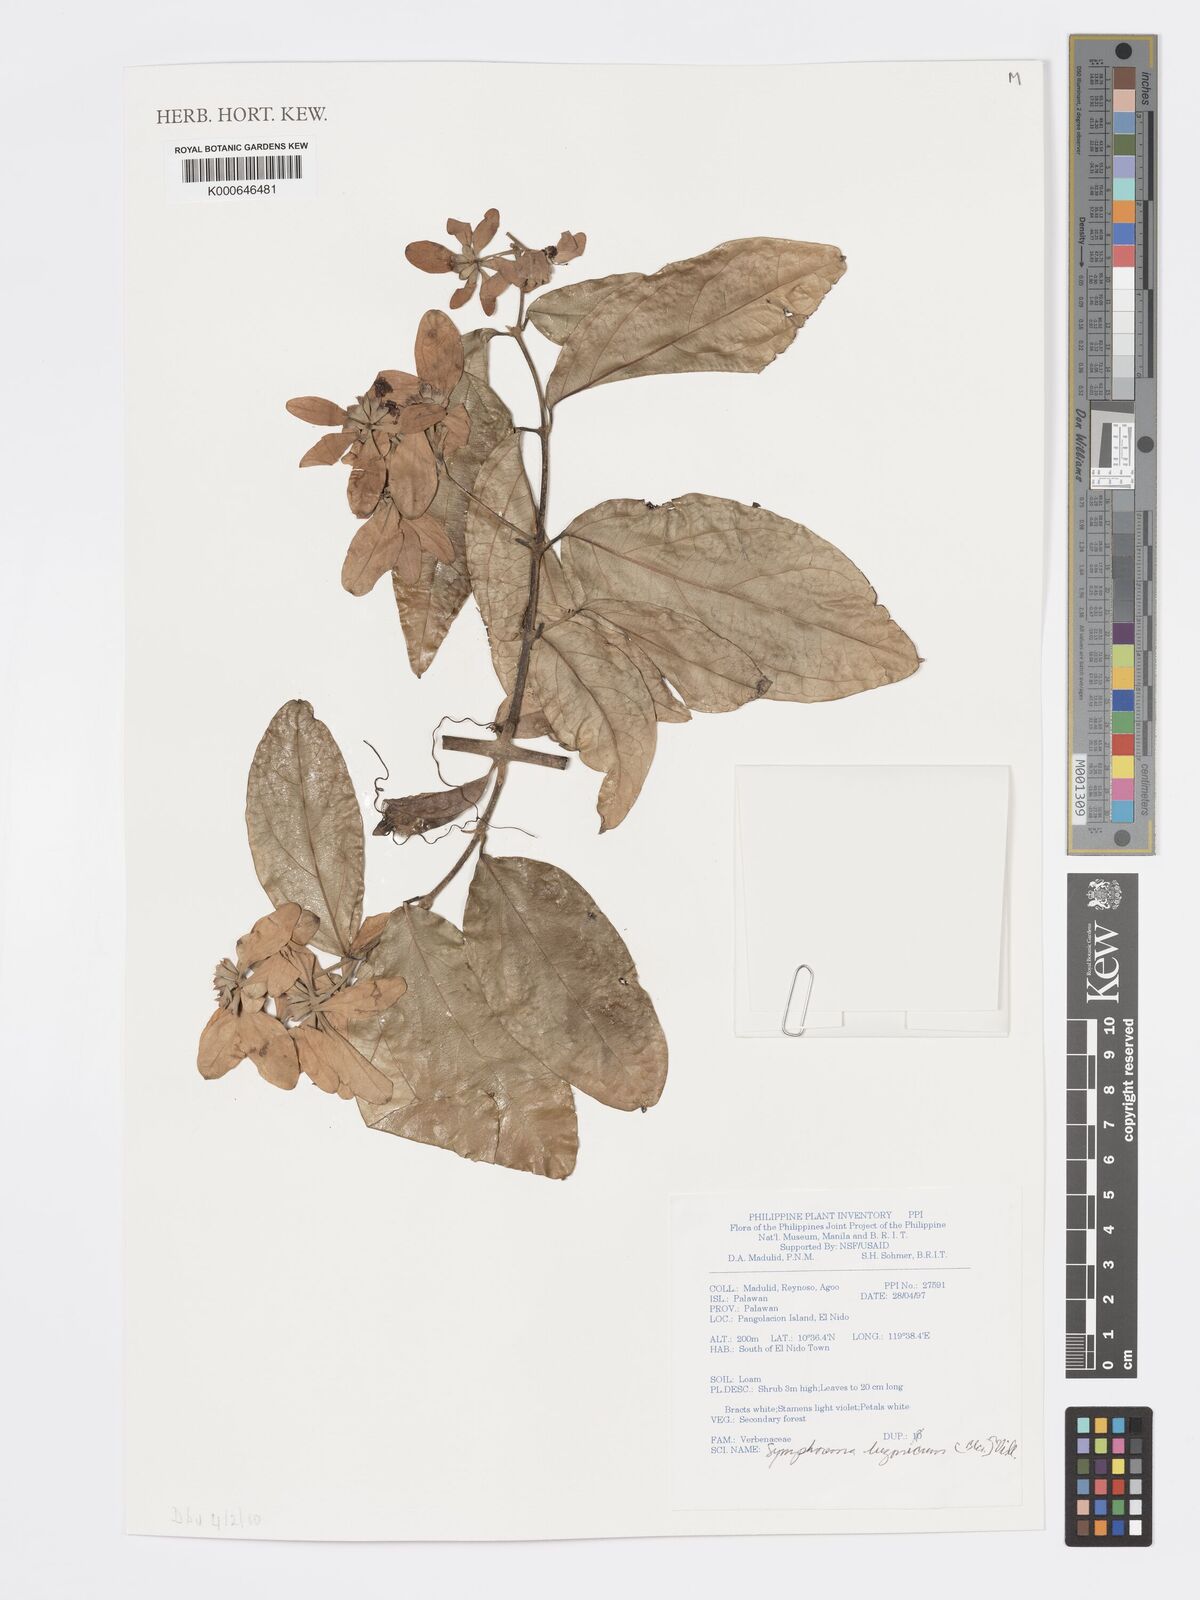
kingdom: Plantae
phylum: Tracheophyta
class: Magnoliopsida
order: Lamiales
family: Lamiaceae
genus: Symphorema
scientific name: Symphorema luzonicum
